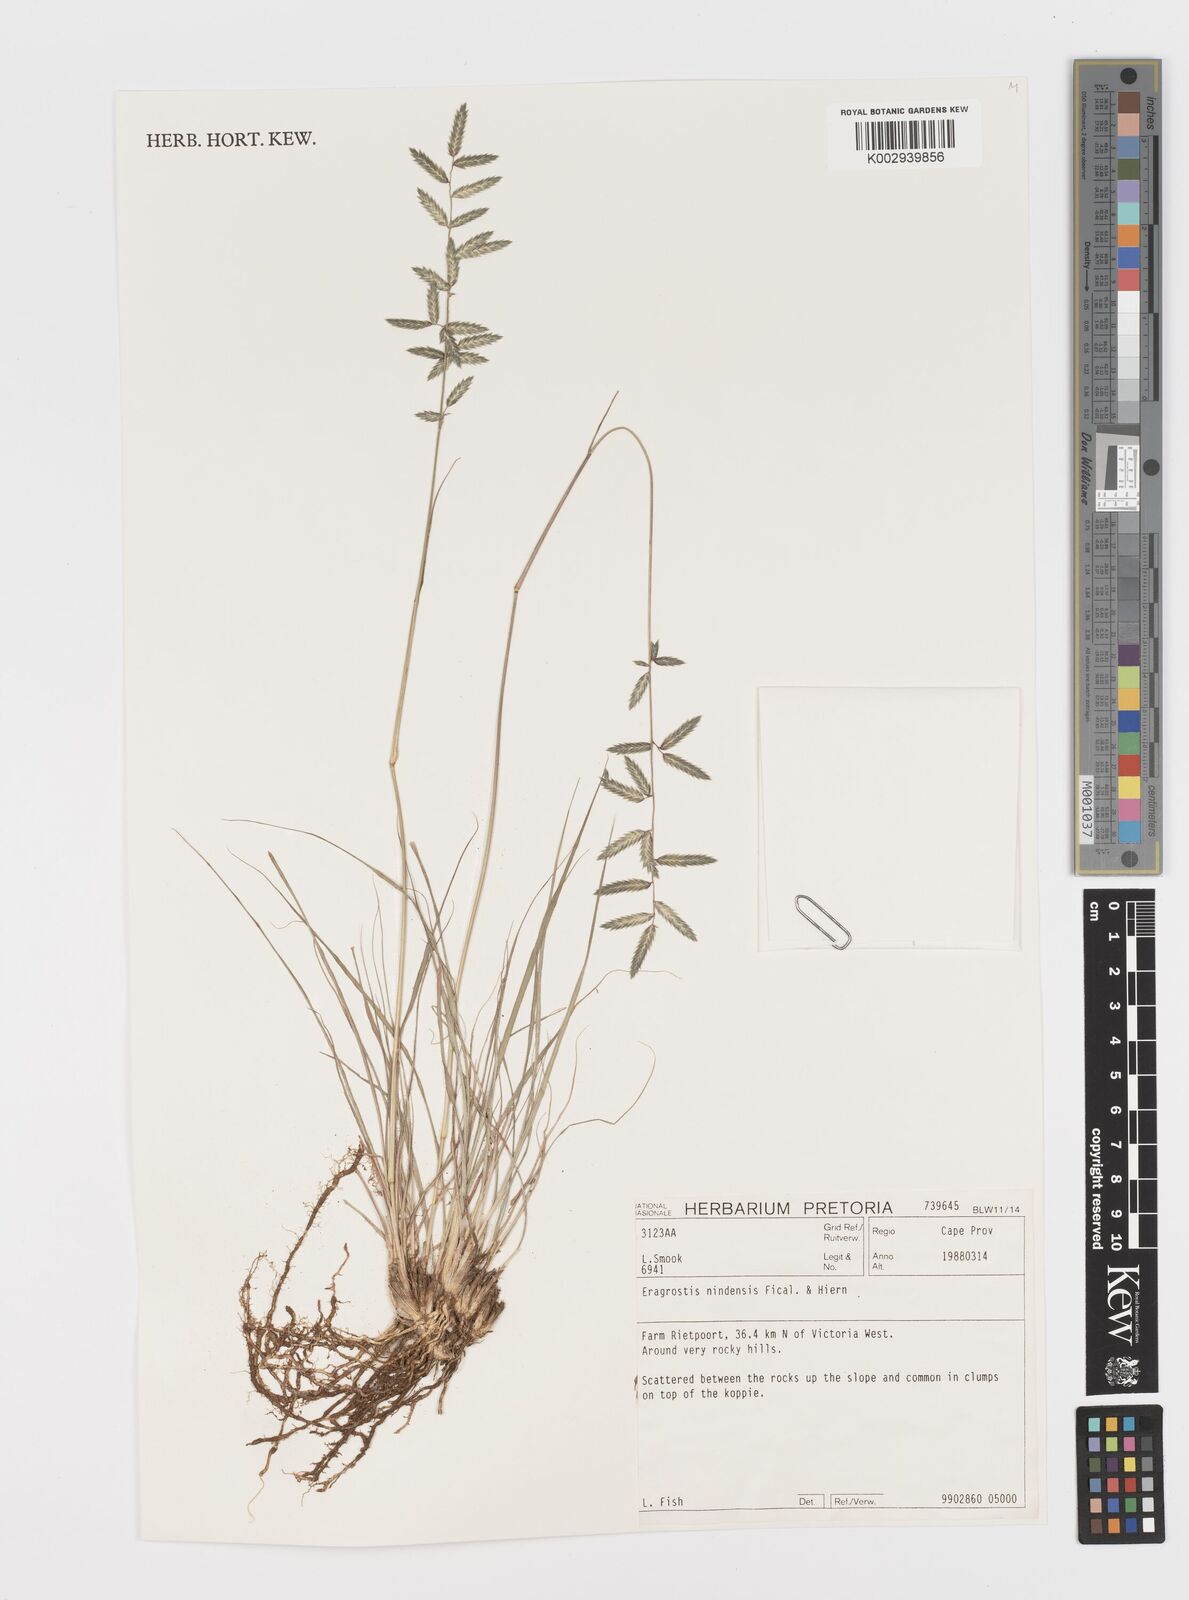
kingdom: Plantae
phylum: Tracheophyta
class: Liliopsida
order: Poales
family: Poaceae
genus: Eragrostis
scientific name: Eragrostis nindensis
